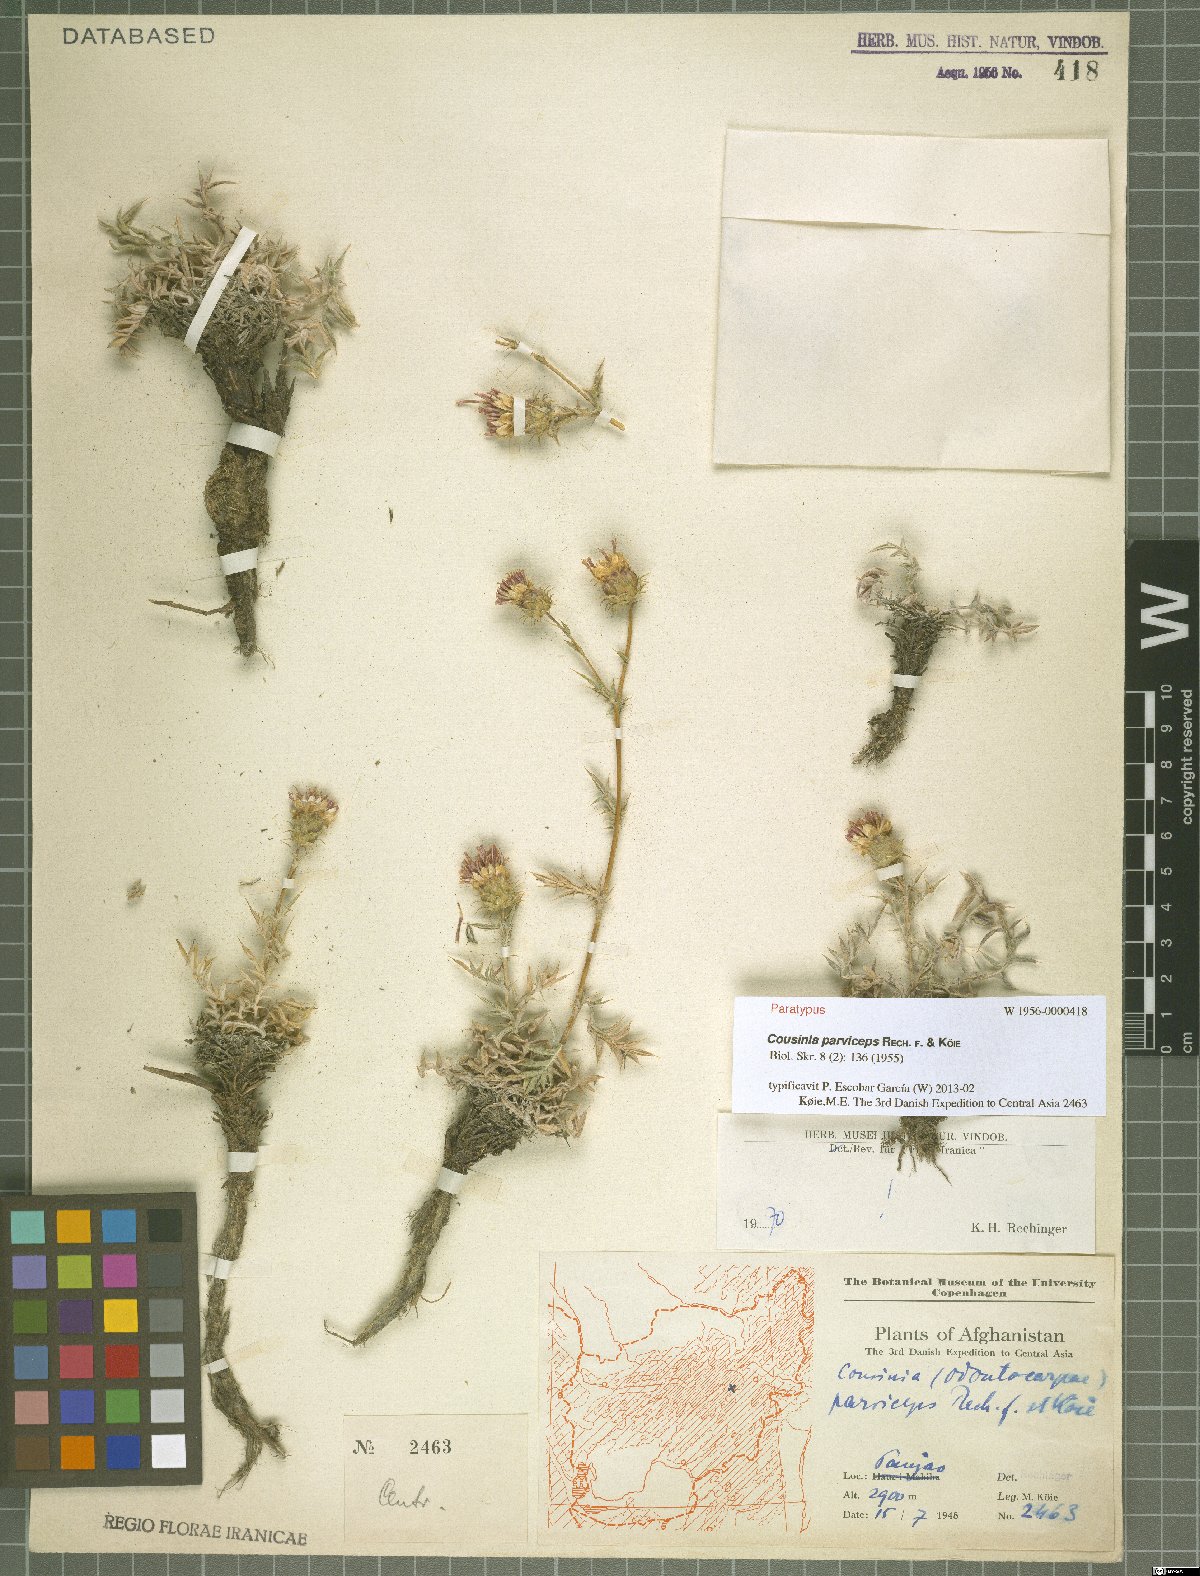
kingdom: Plantae
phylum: Tracheophyta
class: Magnoliopsida
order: Asterales
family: Asteraceae
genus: Cousinia
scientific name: Cousinia parviceps
